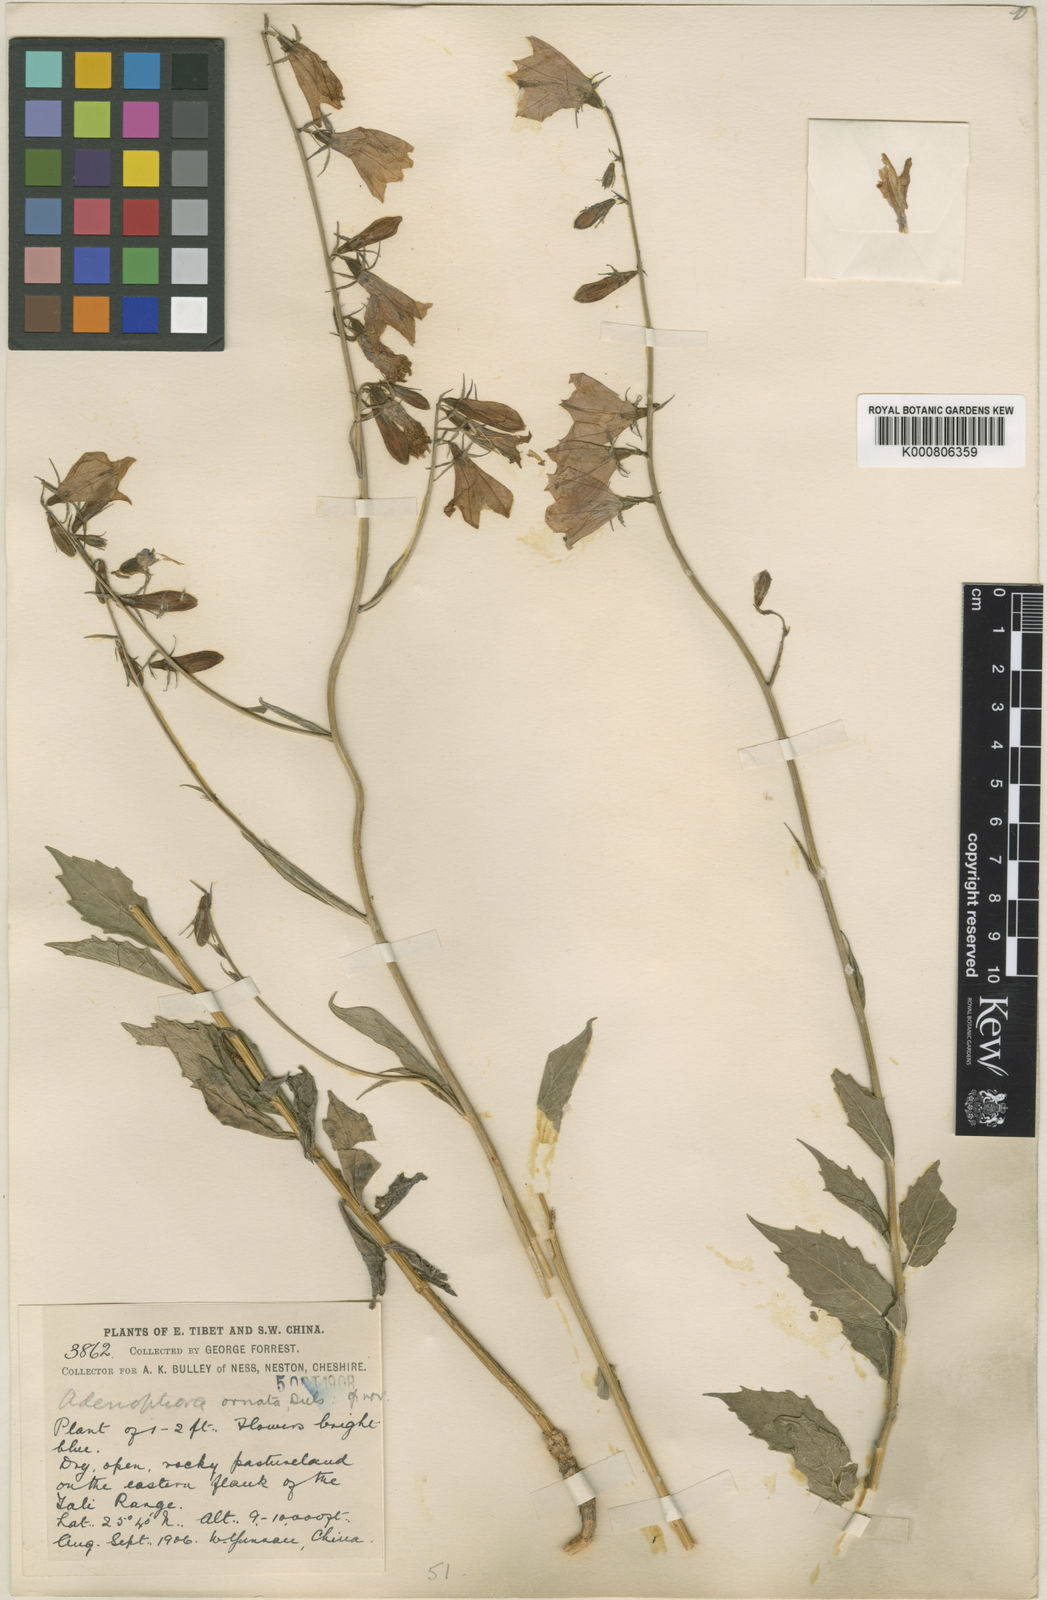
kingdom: Plantae
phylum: Tracheophyta
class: Magnoliopsida
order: Asterales
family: Campanulaceae
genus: Adenophora
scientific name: Adenophora coelestis
